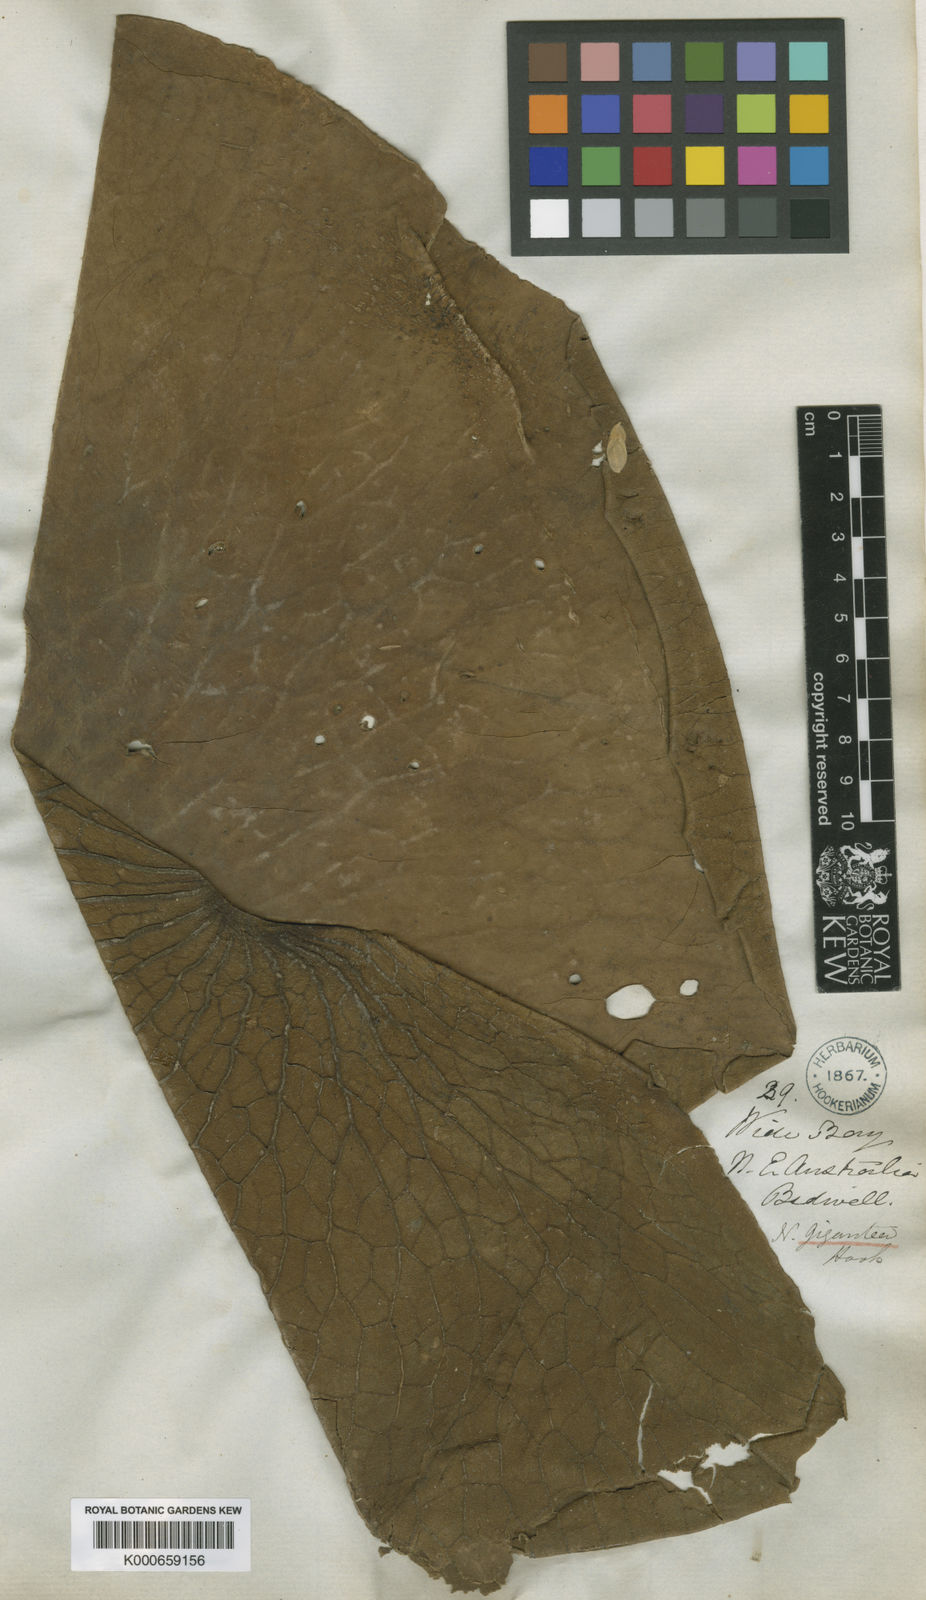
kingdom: Plantae
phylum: Tracheophyta
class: Magnoliopsida
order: Nymphaeales
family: Nymphaeaceae
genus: Nymphaea
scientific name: Nymphaea gigantea
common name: Giant water-lily
